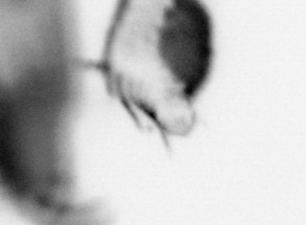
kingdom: Animalia
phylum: Annelida
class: Polychaeta
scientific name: Polychaeta
